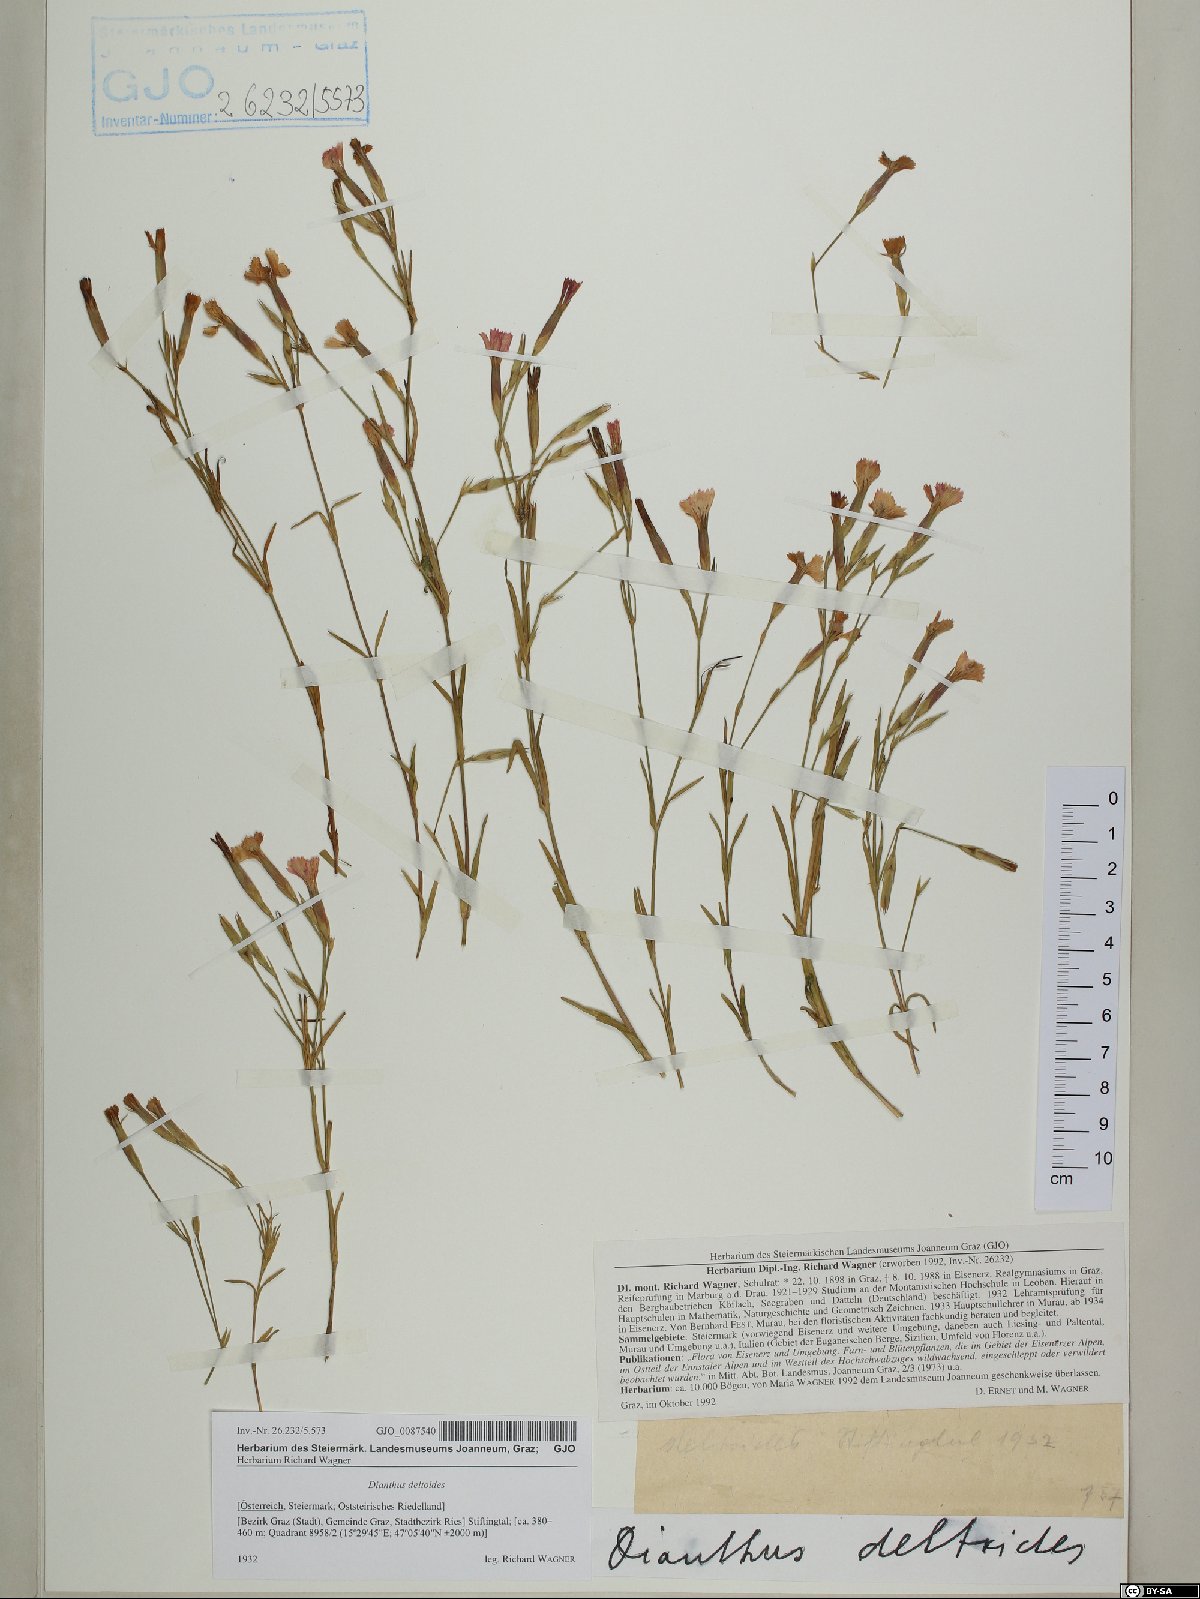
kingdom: Plantae
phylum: Tracheophyta
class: Magnoliopsida
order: Caryophyllales
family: Caryophyllaceae
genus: Dianthus
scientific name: Dianthus deltoides
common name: Maiden pink
